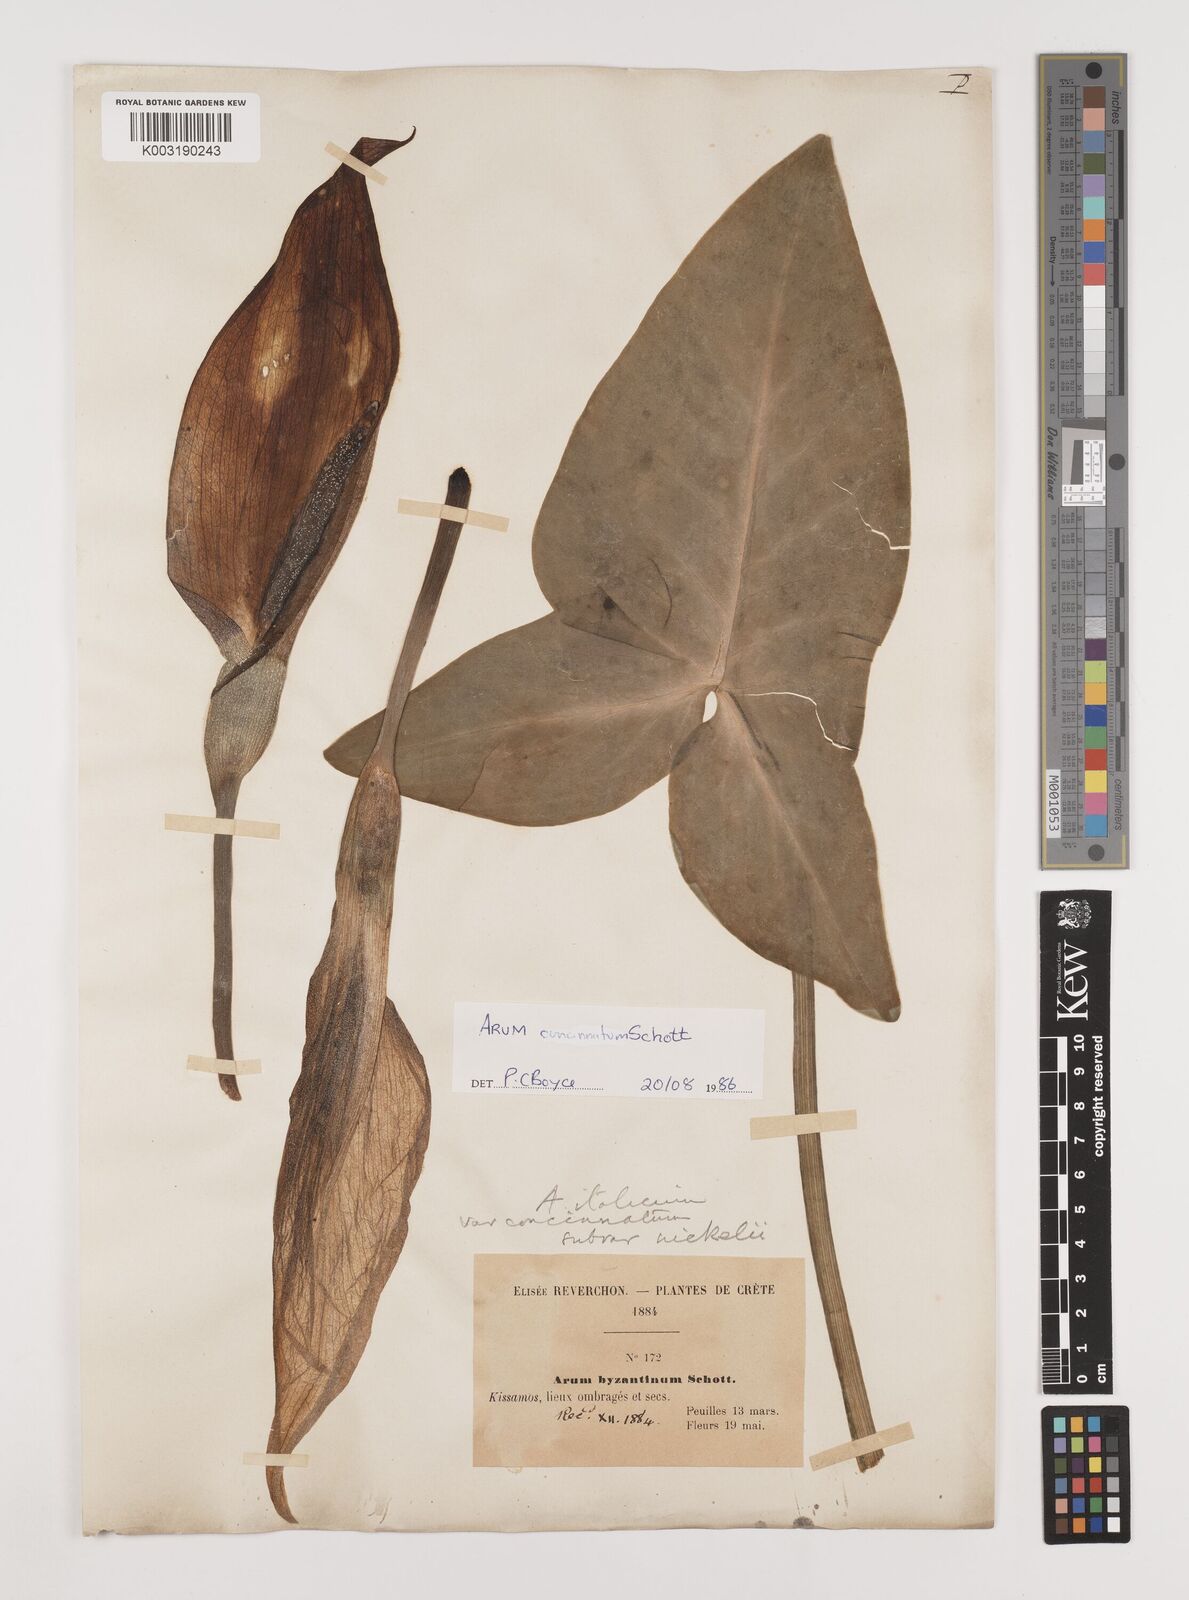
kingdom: Plantae
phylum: Tracheophyta
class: Liliopsida
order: Alismatales
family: Araceae
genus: Arum
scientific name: Arum concinnatum
